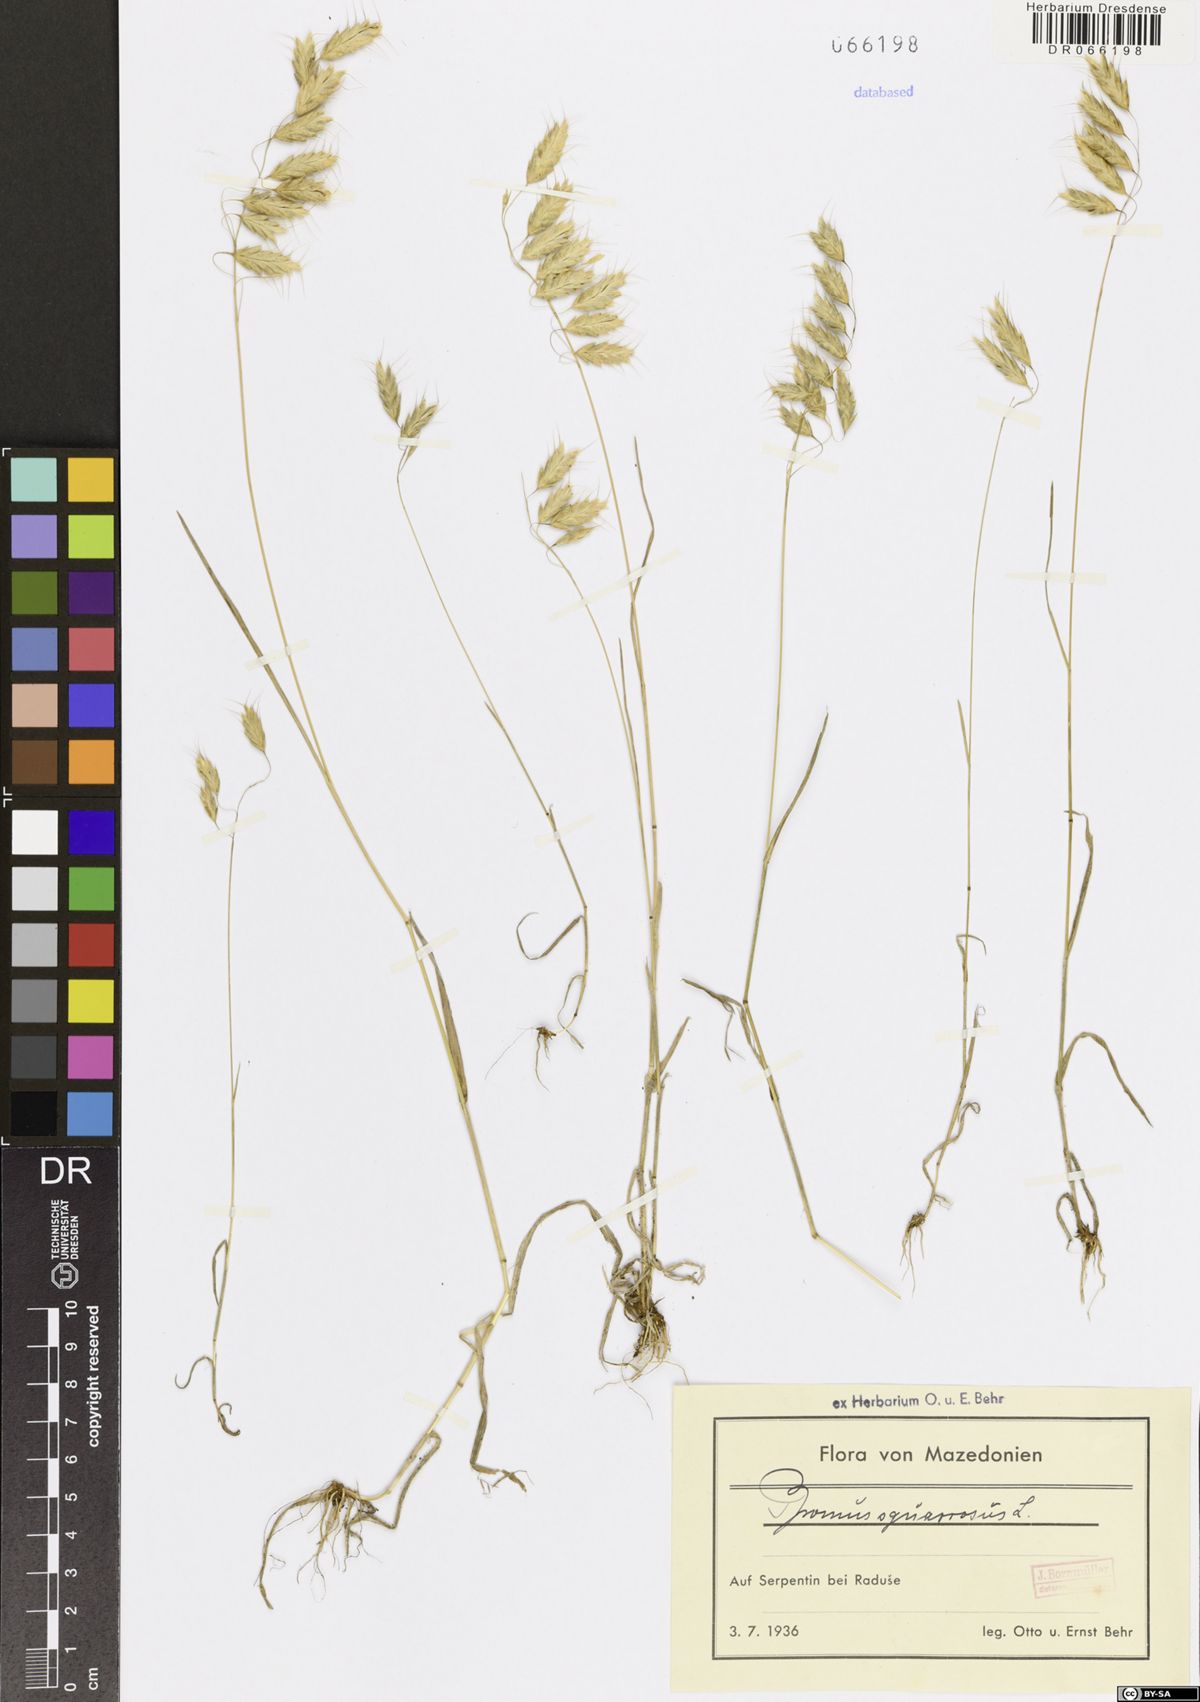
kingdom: Plantae
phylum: Tracheophyta
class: Liliopsida
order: Poales
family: Poaceae
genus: Bromus
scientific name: Bromus squarrosus
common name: Corn brome
